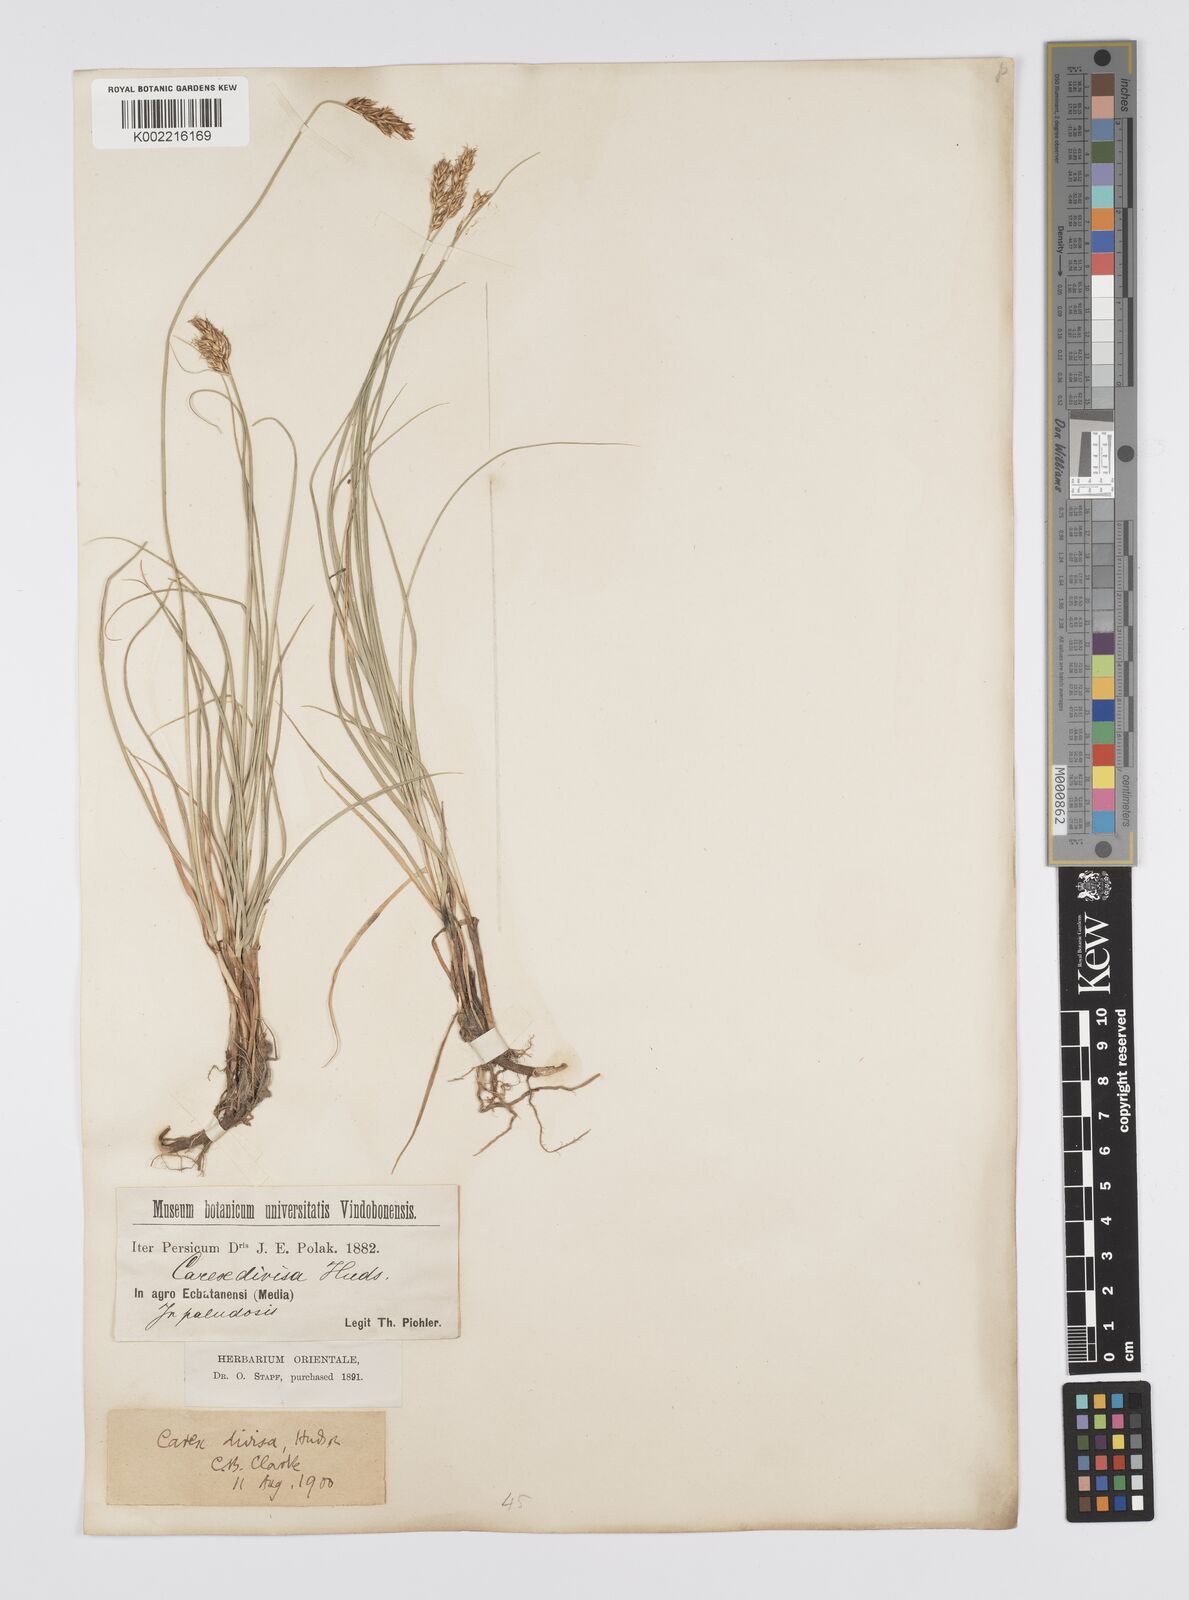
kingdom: Plantae
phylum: Tracheophyta
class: Liliopsida
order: Poales
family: Cyperaceae
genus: Carex
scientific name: Carex divisa
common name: Divided sedge
